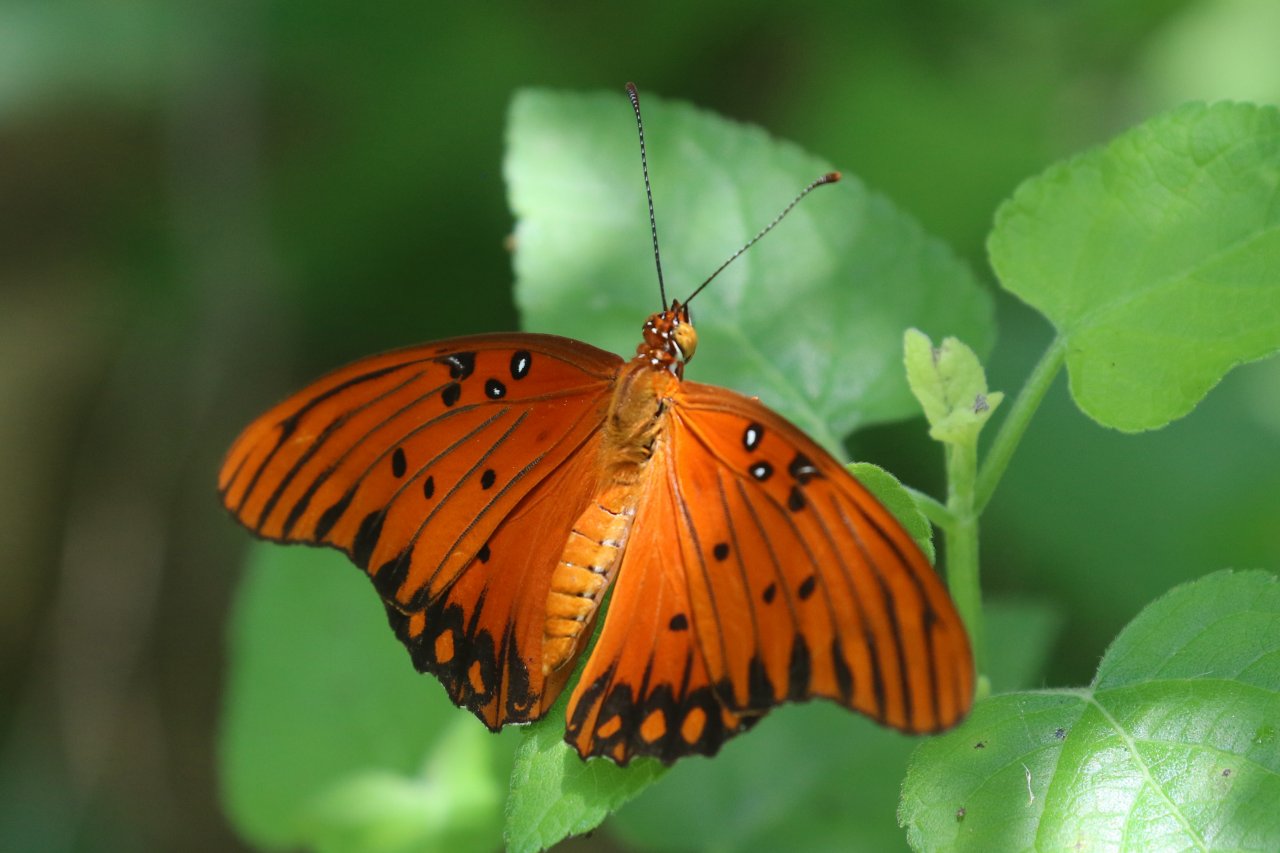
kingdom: Animalia
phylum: Arthropoda
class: Insecta
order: Lepidoptera
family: Nymphalidae
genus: Dione
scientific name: Dione vanillae
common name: Gulf Fritillary
